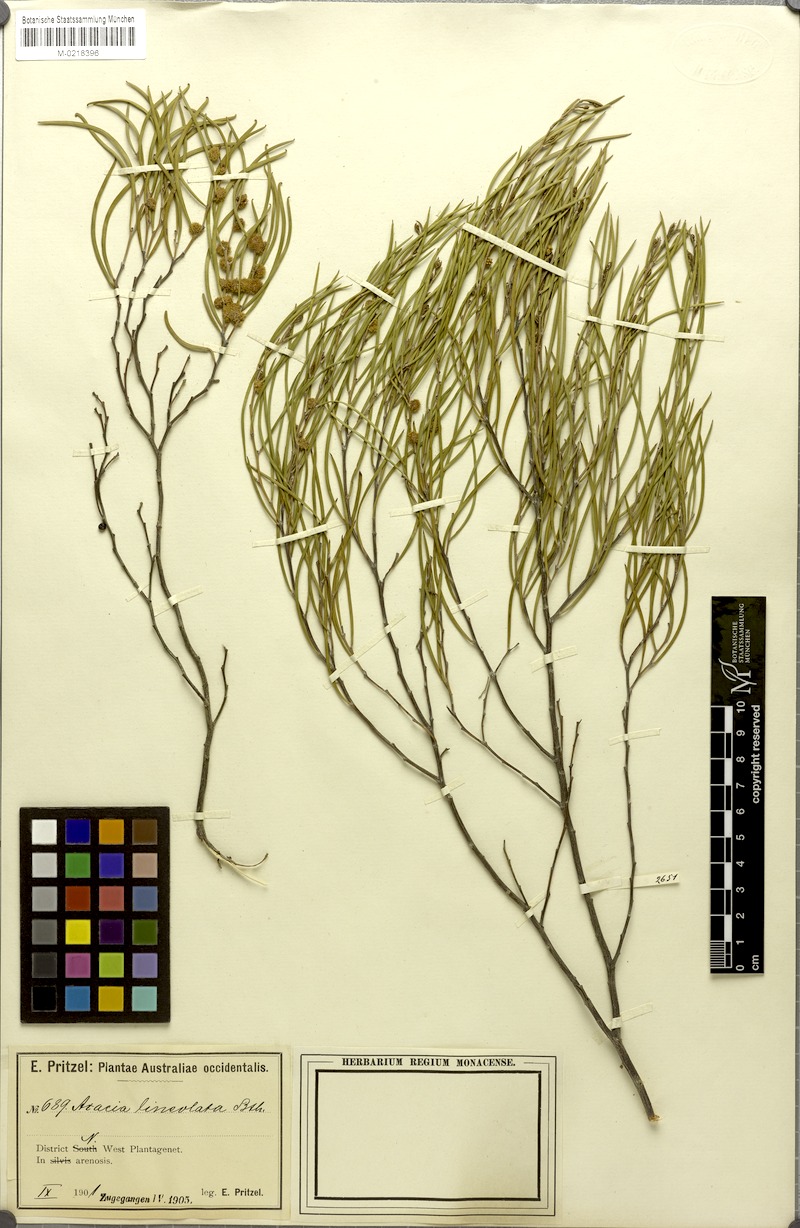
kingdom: Plantae
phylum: Tracheophyta
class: Magnoliopsida
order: Fabales
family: Fabaceae
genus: Acacia
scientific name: Acacia microneura
